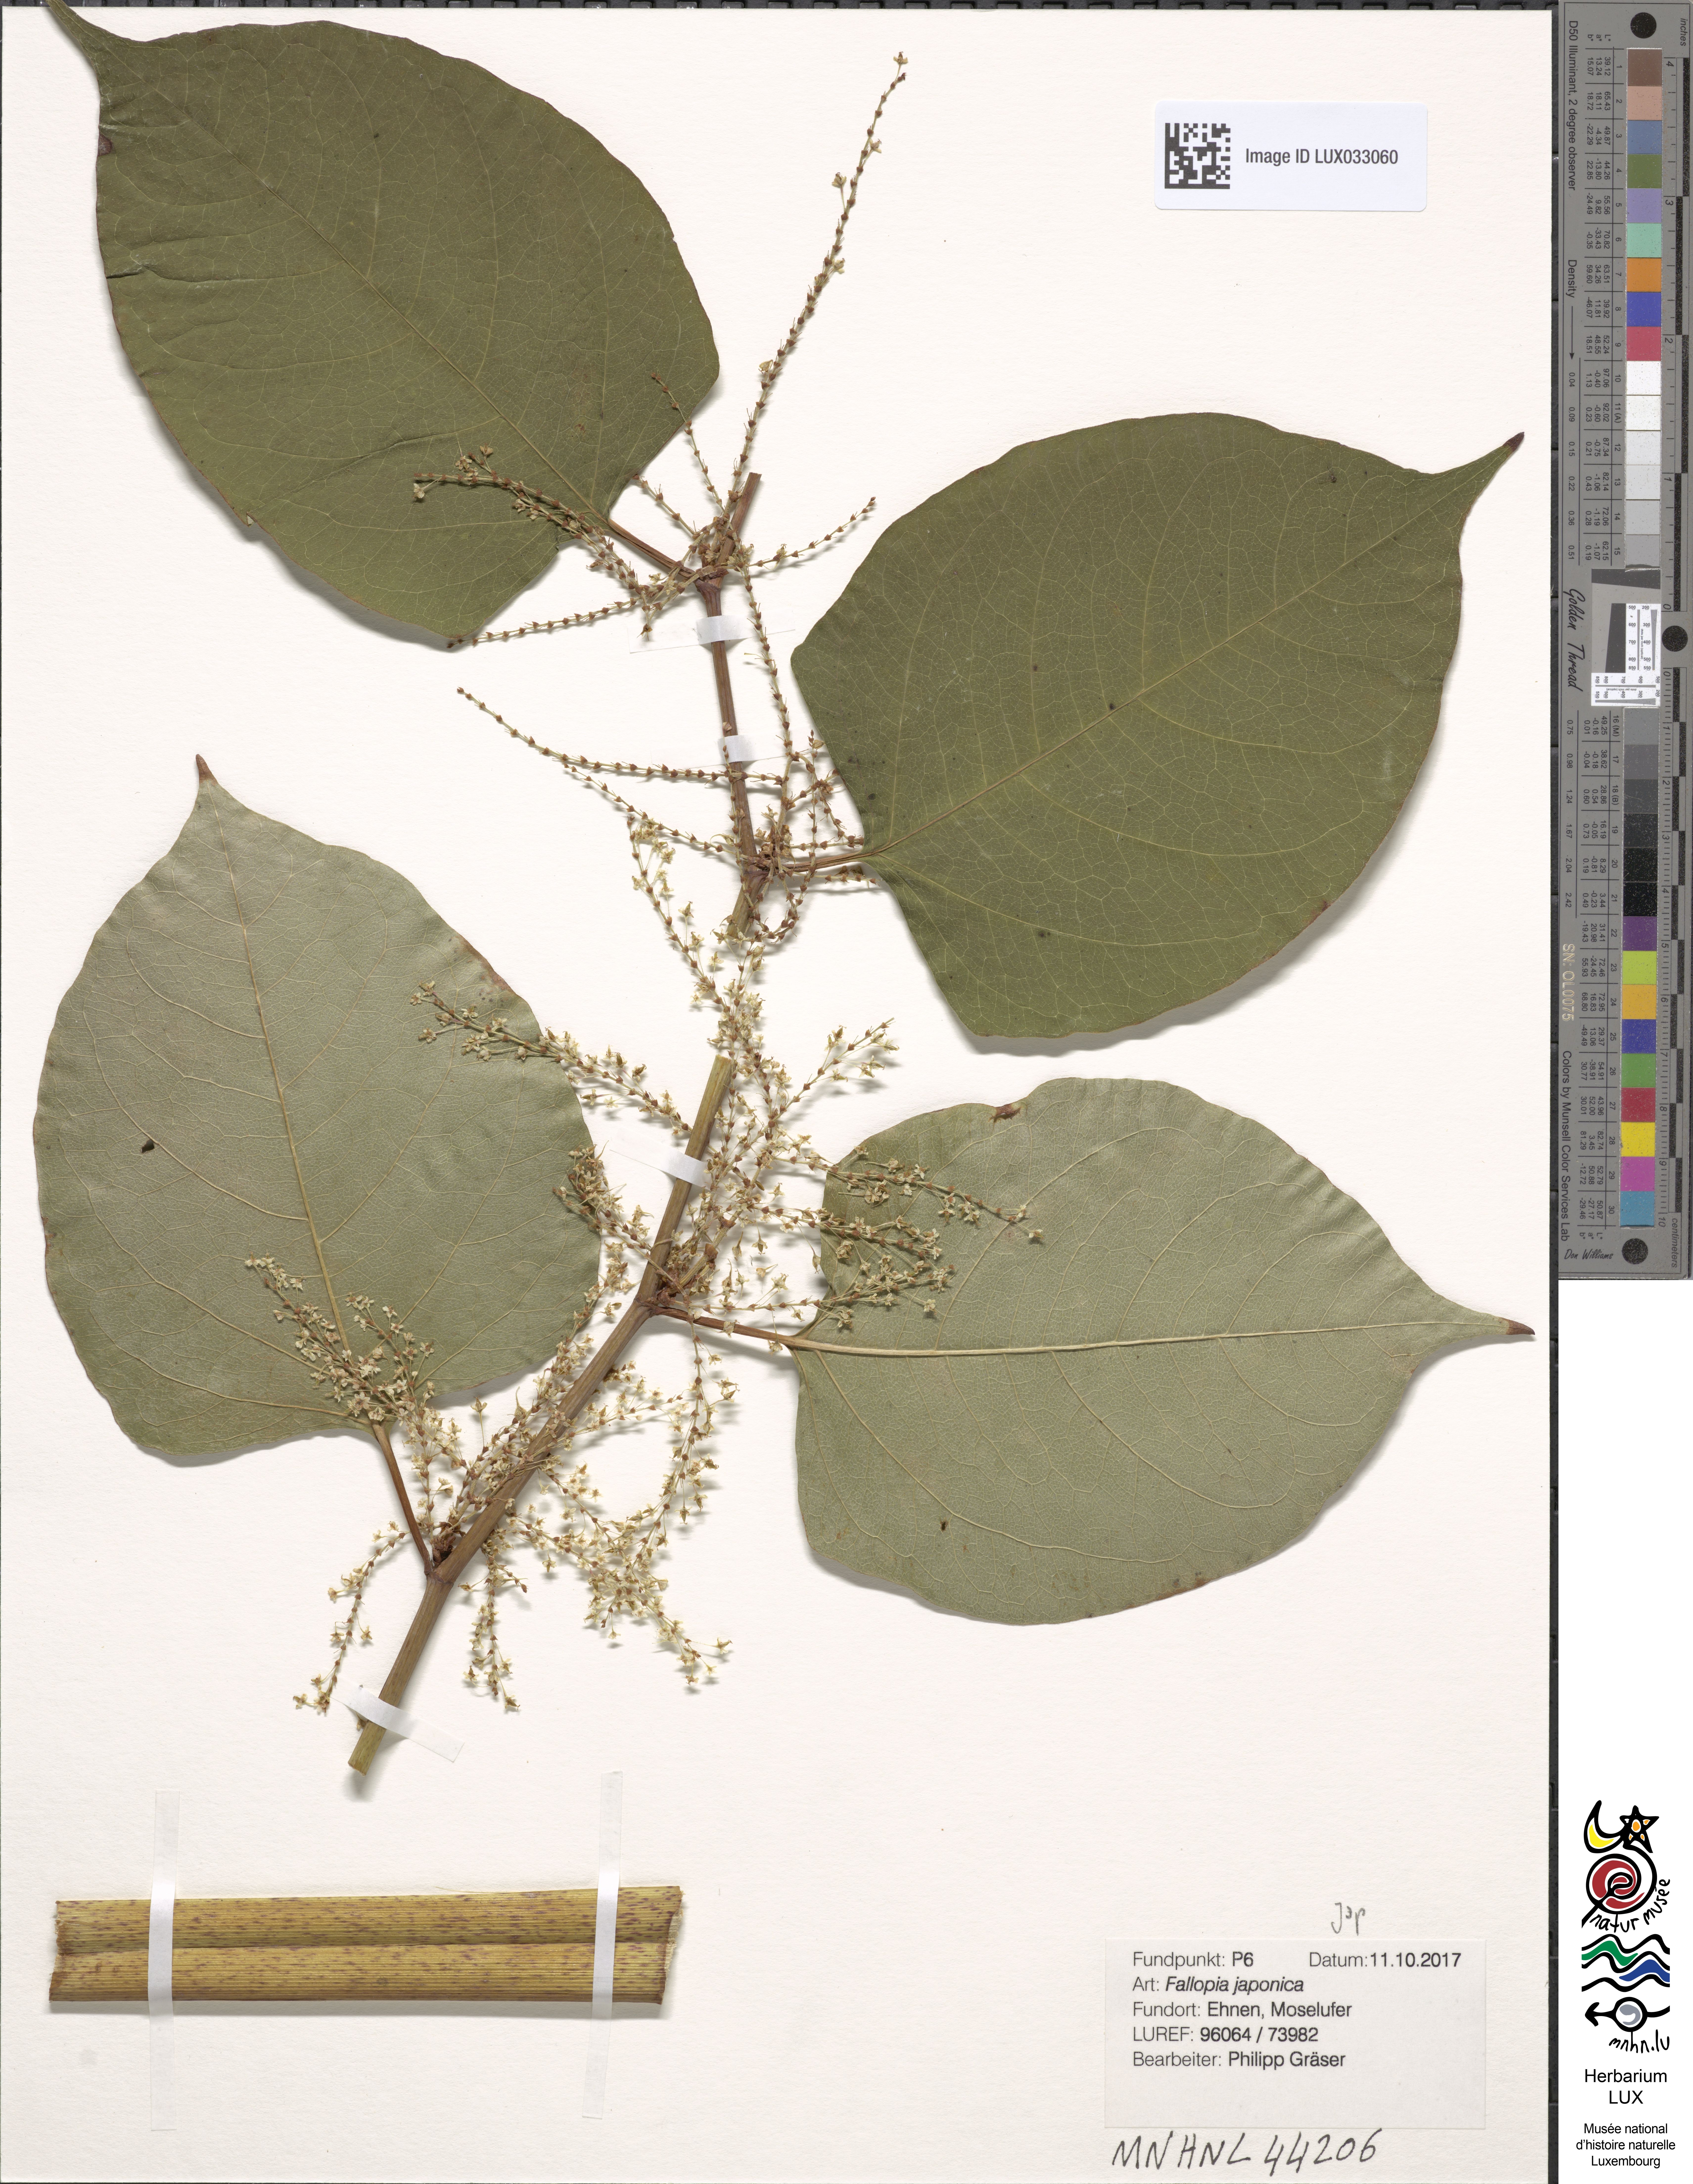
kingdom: Plantae
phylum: Tracheophyta
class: Magnoliopsida
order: Caryophyllales
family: Polygonaceae
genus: Reynoutria
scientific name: Reynoutria japonica
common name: Japanese knotweed
